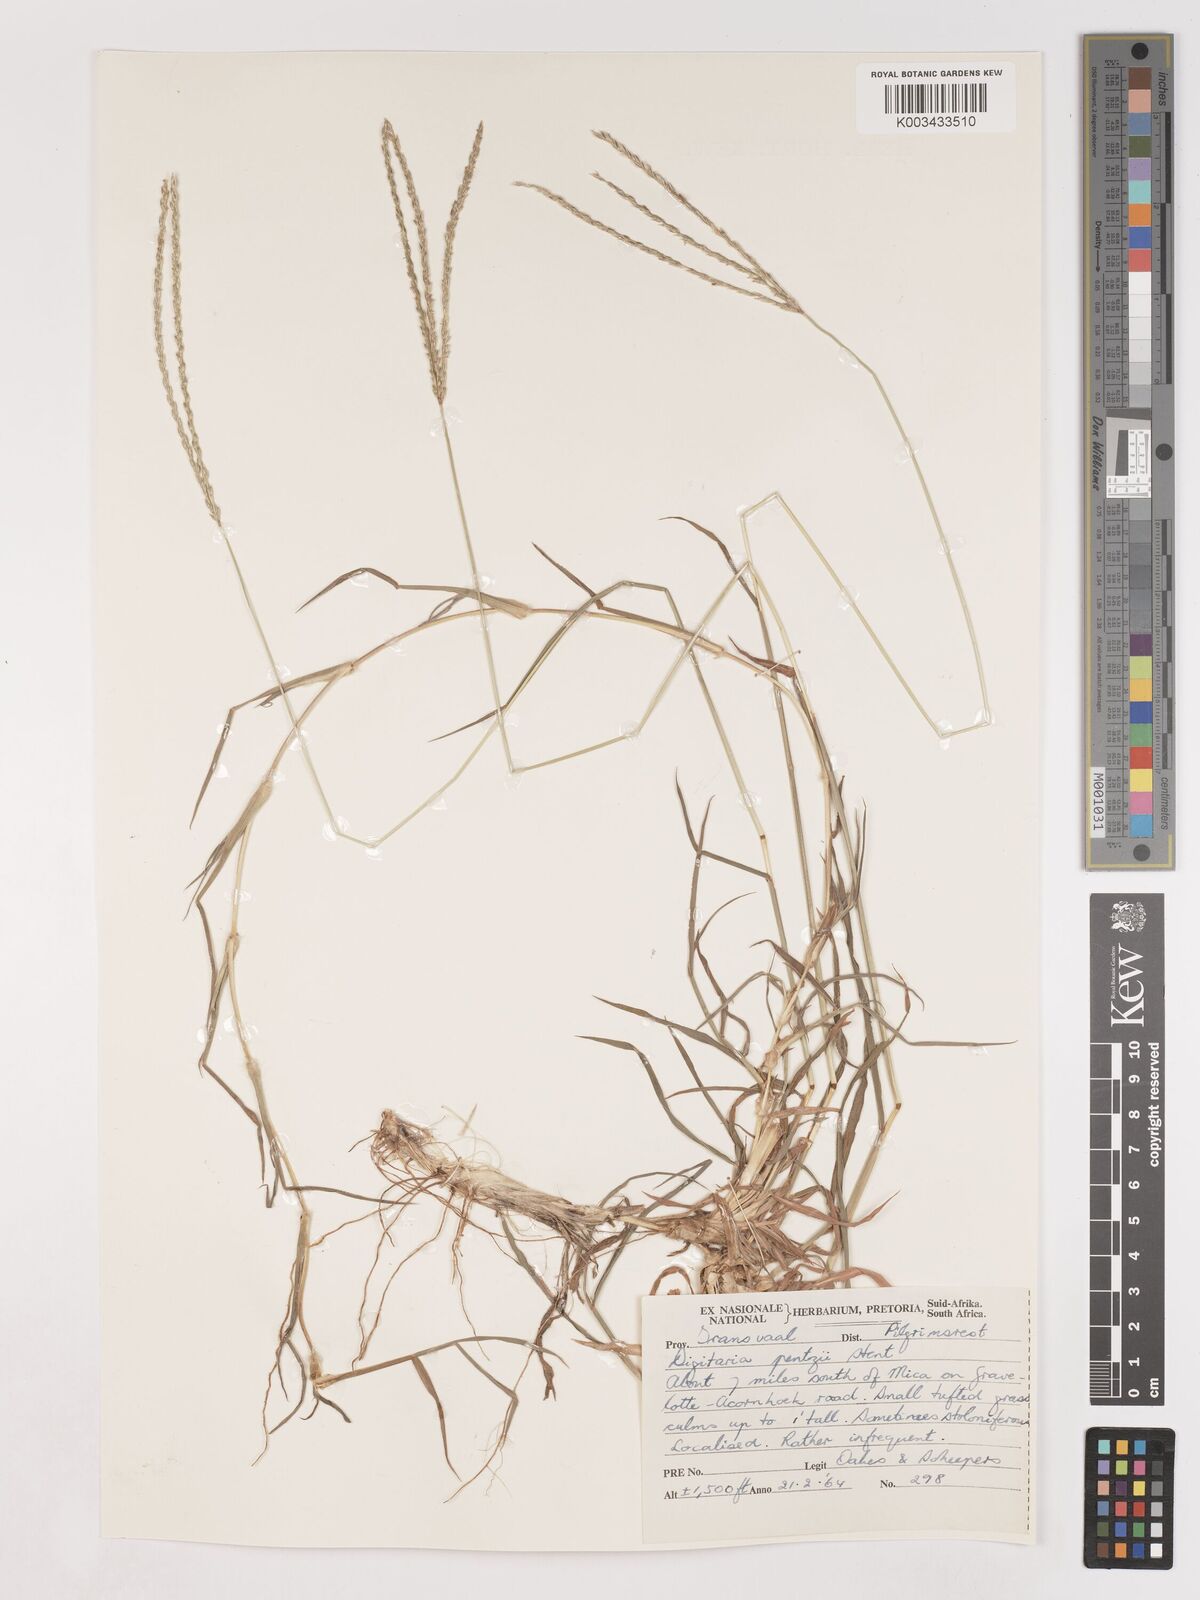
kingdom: Plantae
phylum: Tracheophyta
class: Liliopsida
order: Poales
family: Poaceae
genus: Digitaria
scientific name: Digitaria eriantha
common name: Digitgrass
